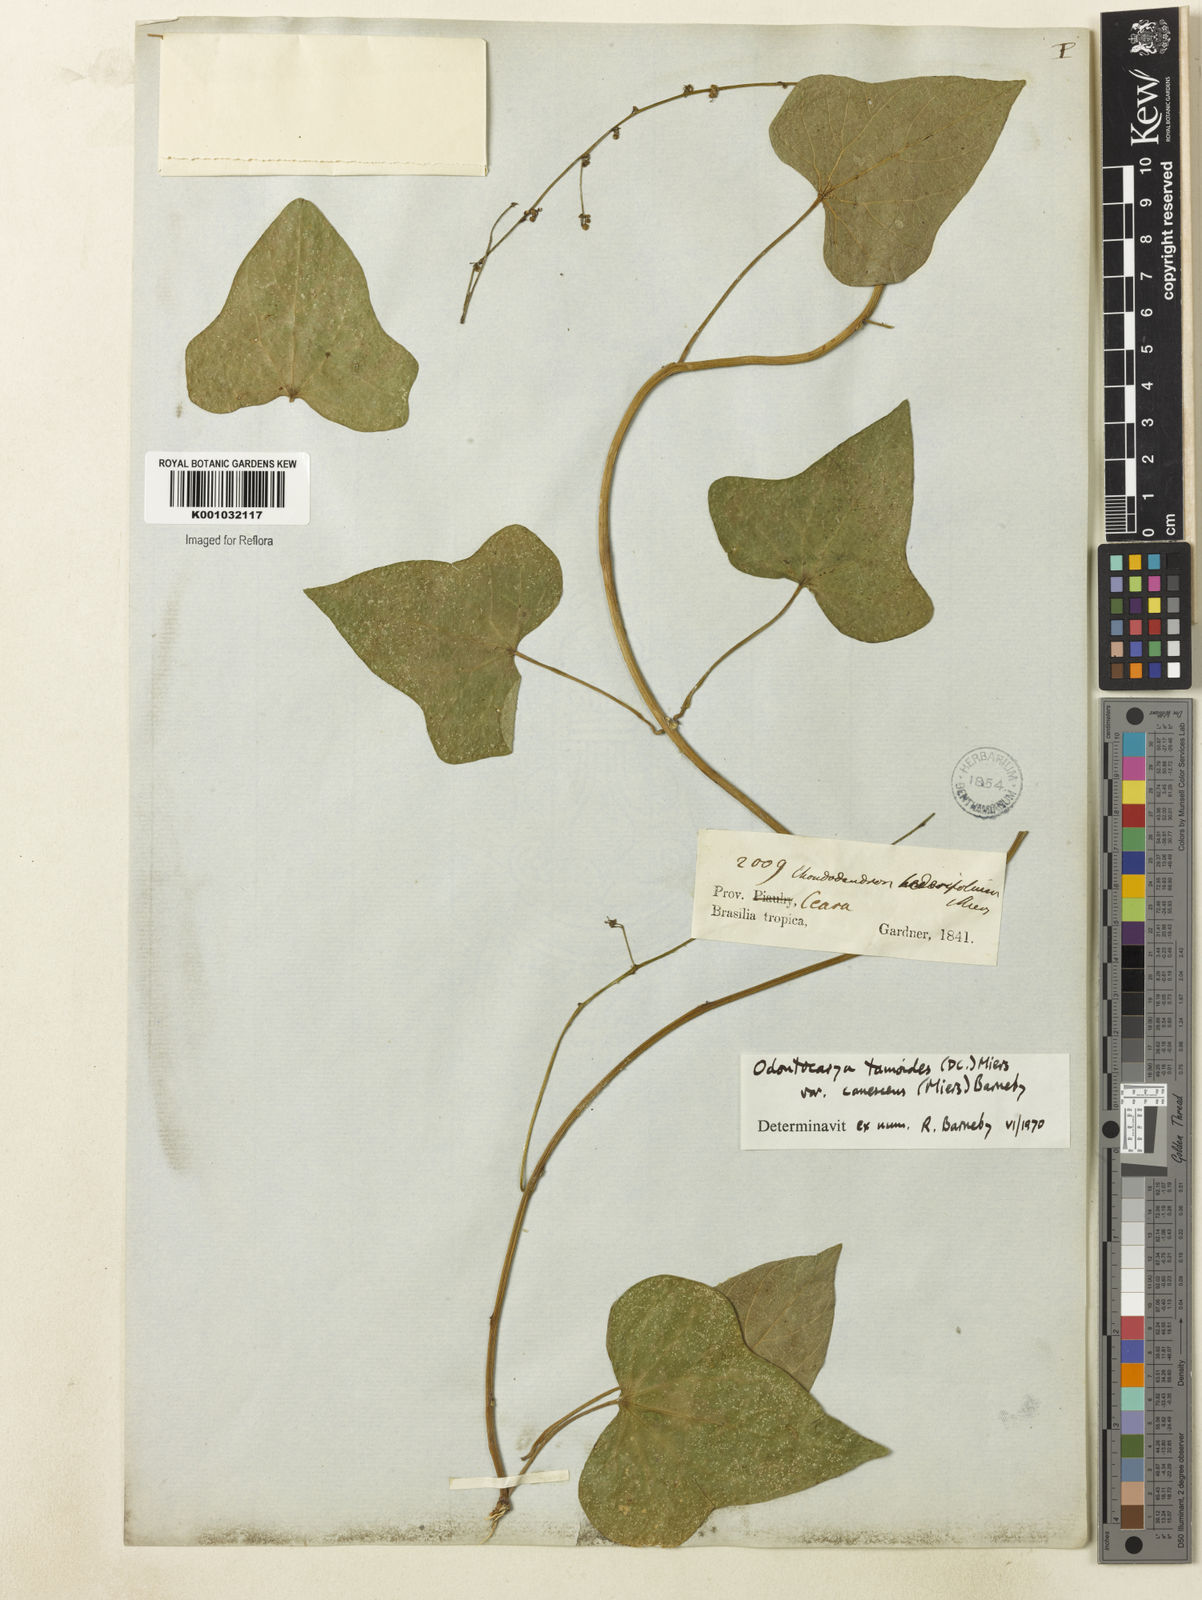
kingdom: Plantae
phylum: Tracheophyta
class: Magnoliopsida
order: Ranunculales
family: Menispermaceae
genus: Odontocarya
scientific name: Odontocarya tamoides
